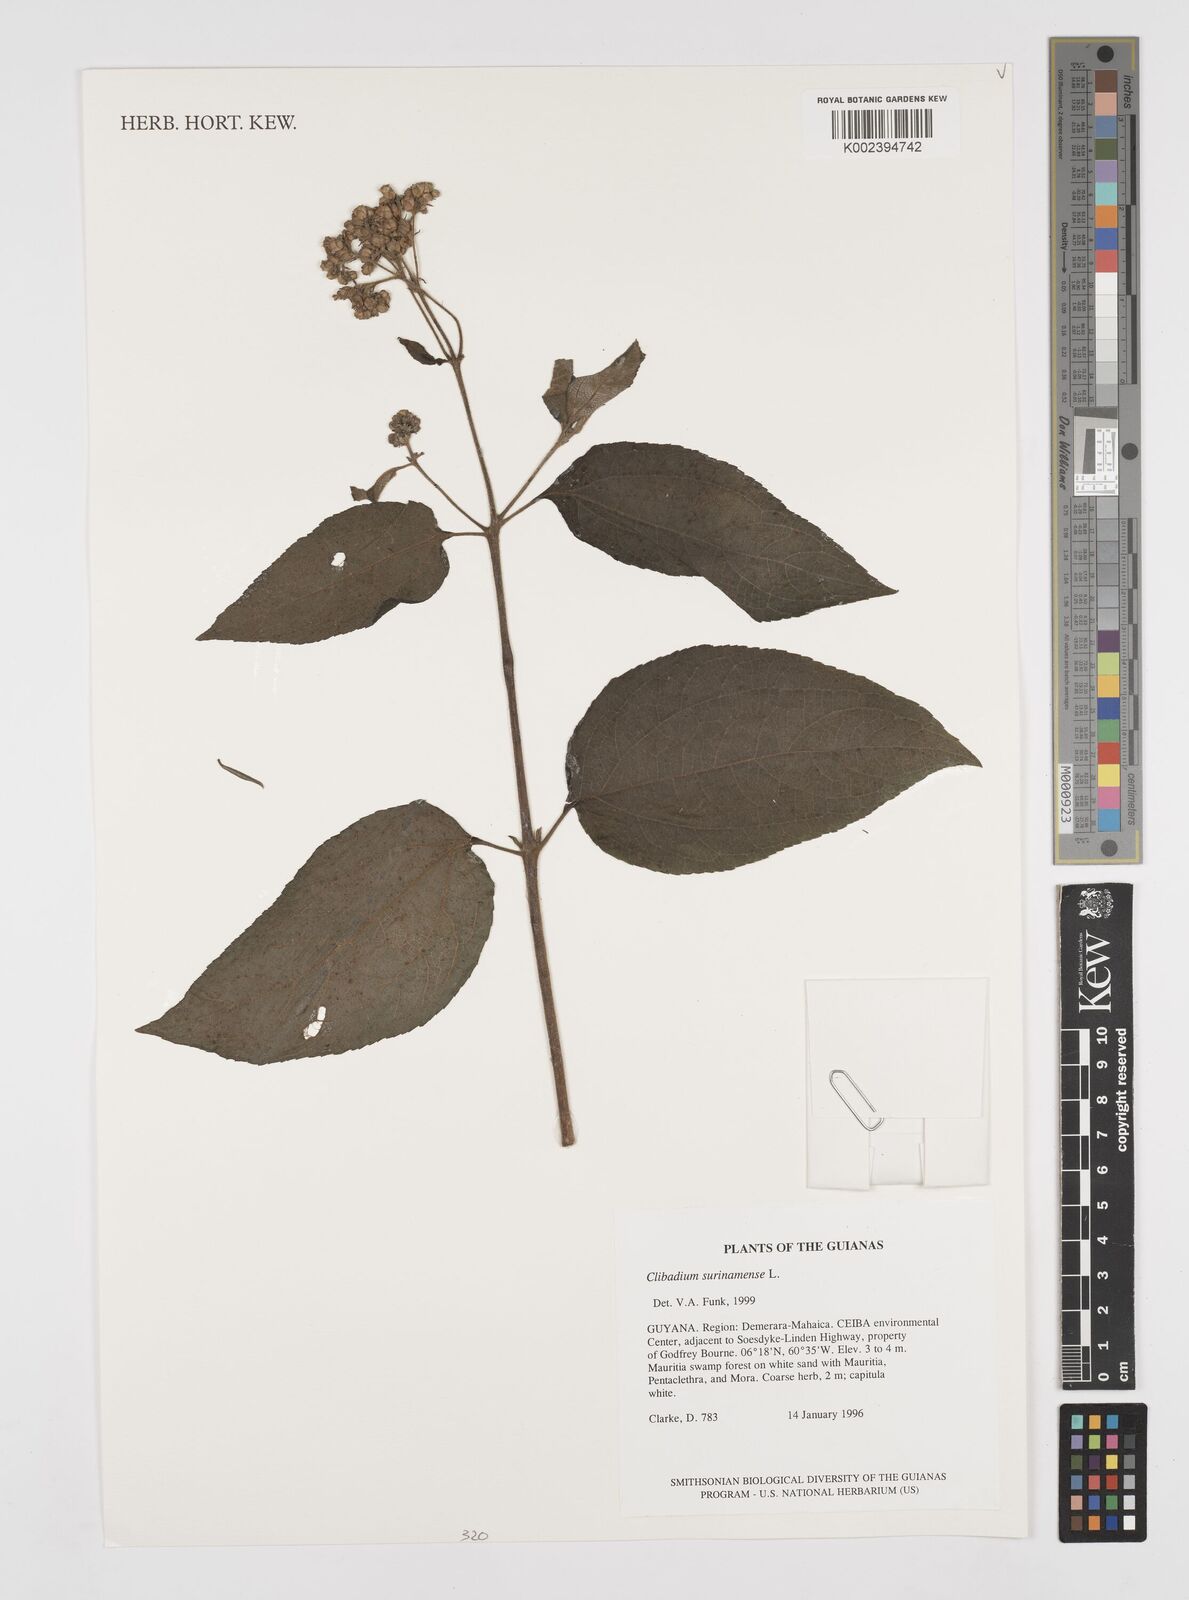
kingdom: Plantae
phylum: Tracheophyta
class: Magnoliopsida
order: Asterales
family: Asteraceae
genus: Clibadium
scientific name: Clibadium surinamense
